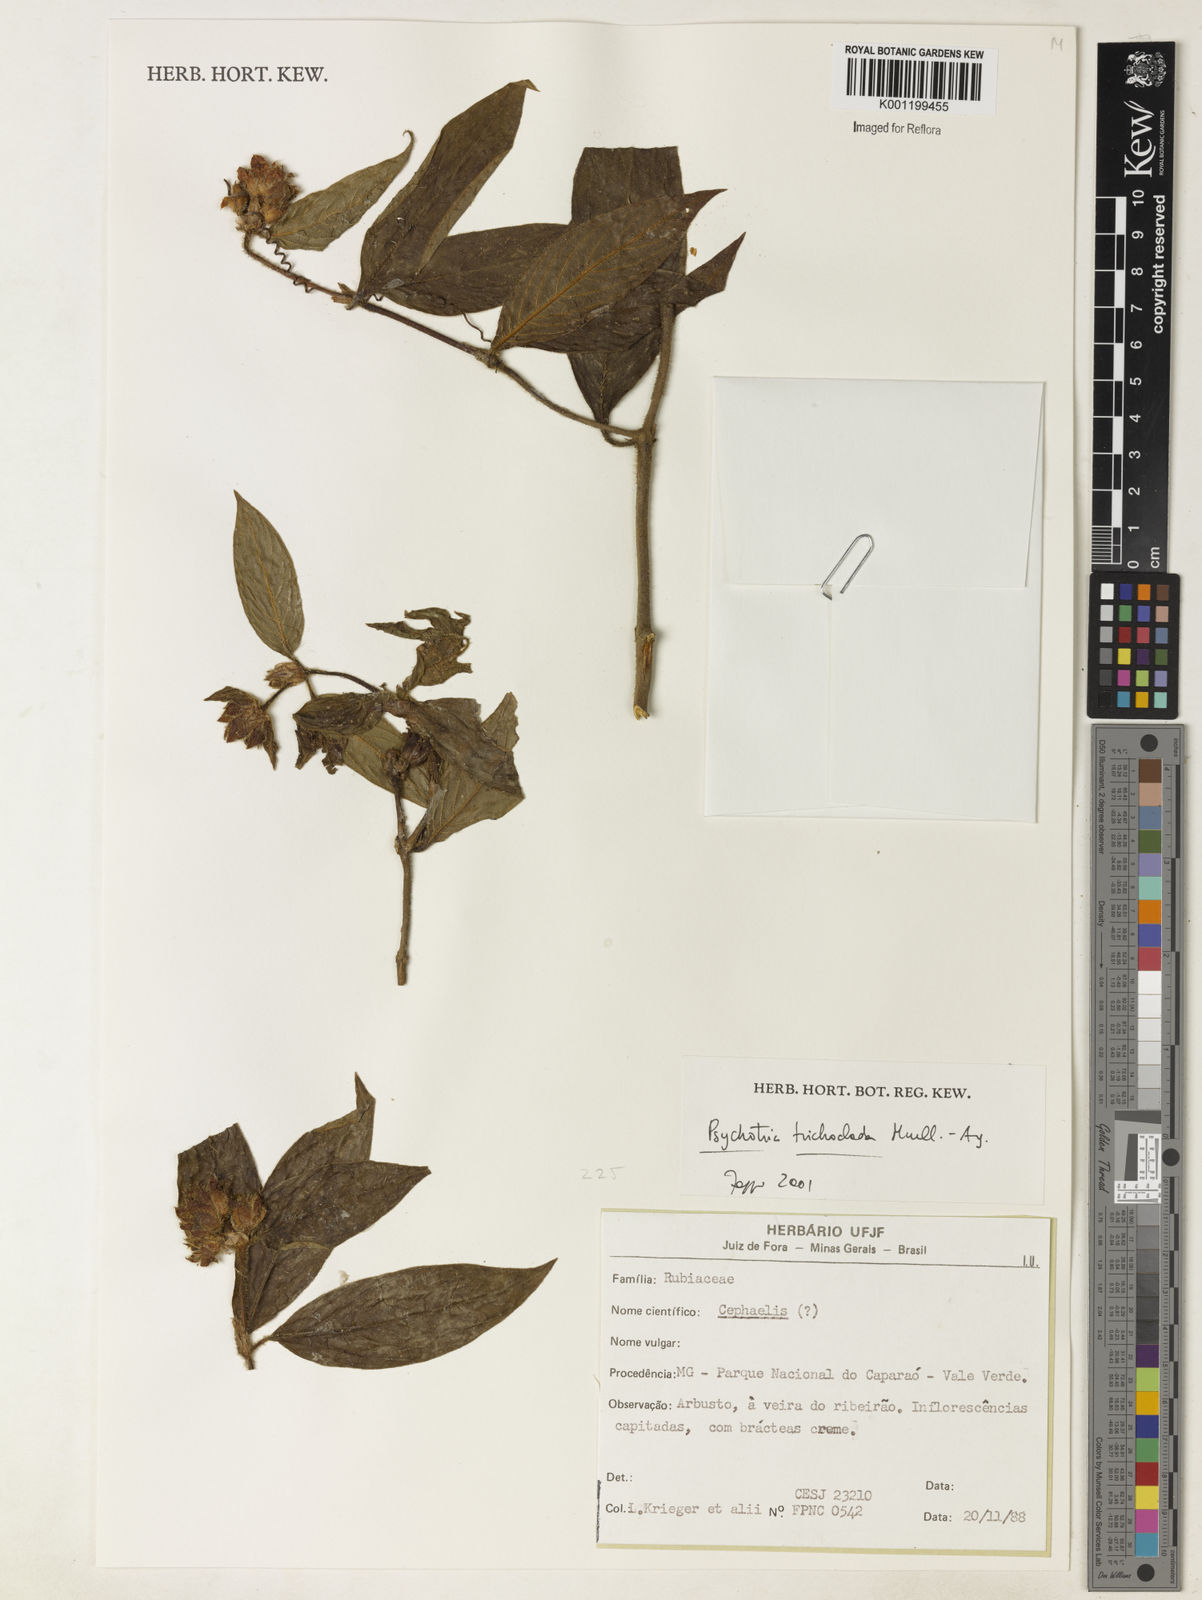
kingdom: Plantae
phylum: Tracheophyta
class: Magnoliopsida
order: Gentianales
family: Rubiaceae
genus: Psychotria
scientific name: Psychotria
